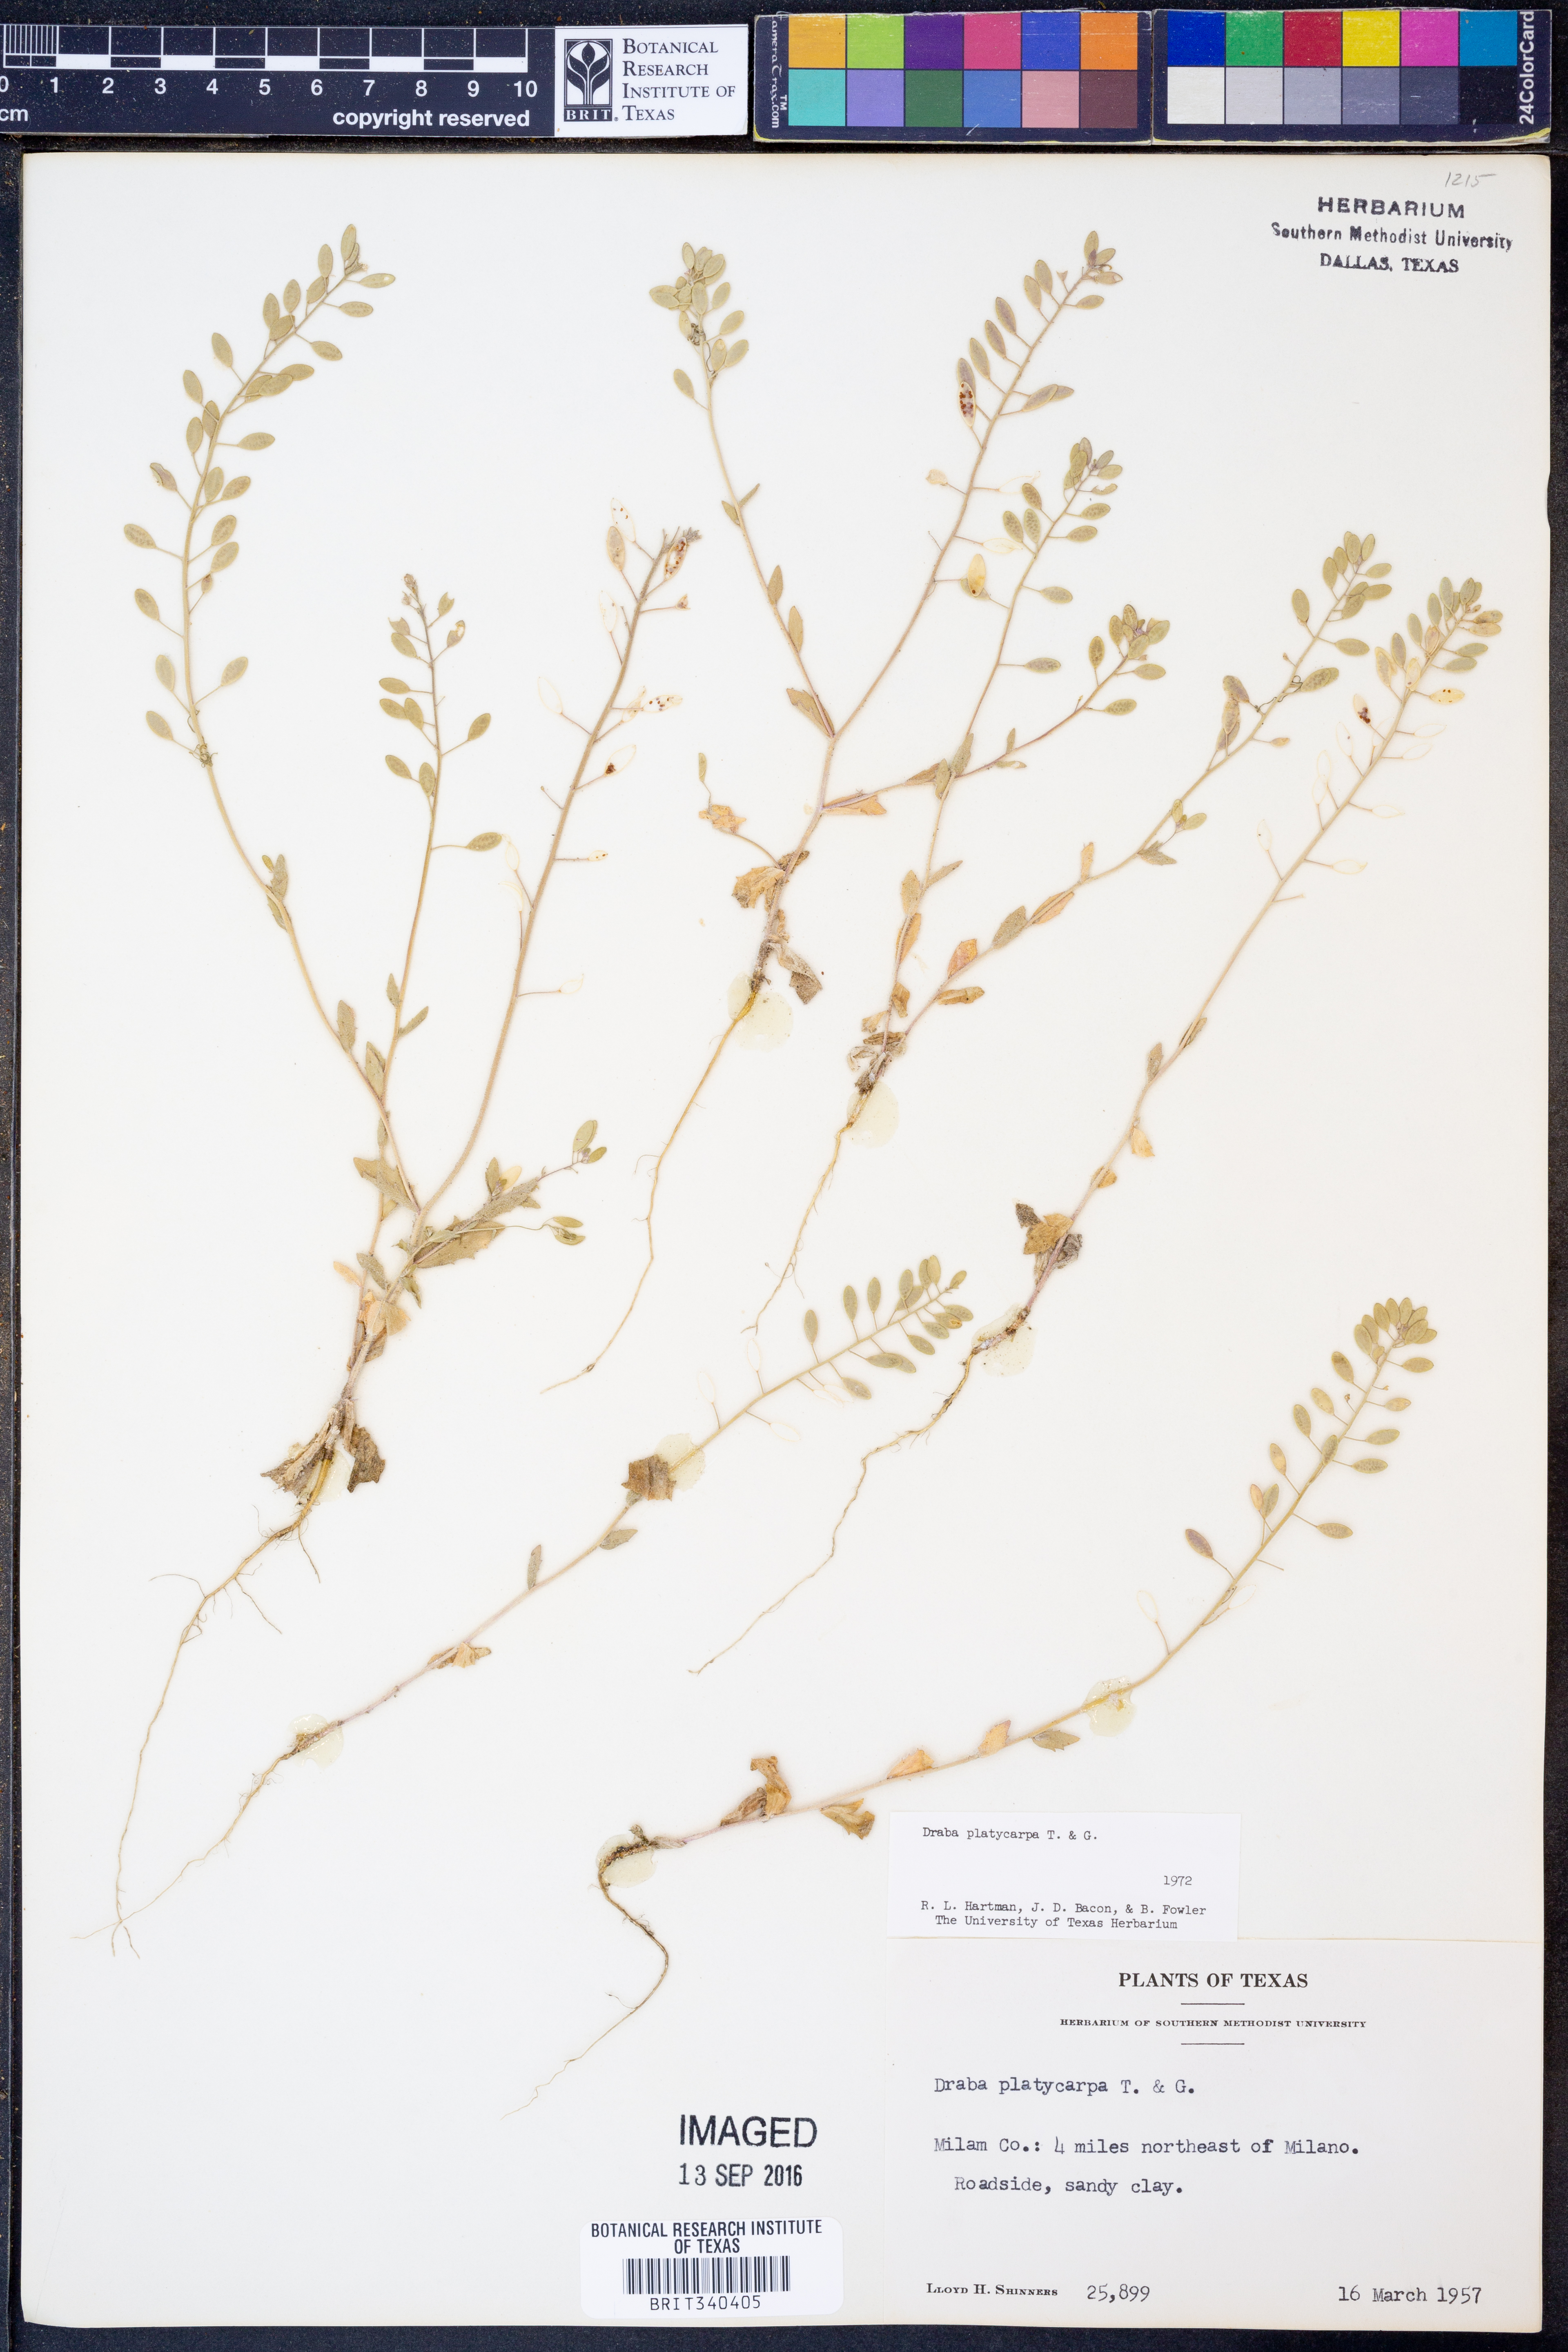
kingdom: Plantae
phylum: Tracheophyta
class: Magnoliopsida
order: Brassicales
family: Brassicaceae
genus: Tomostima
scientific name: Tomostima platycarpa
